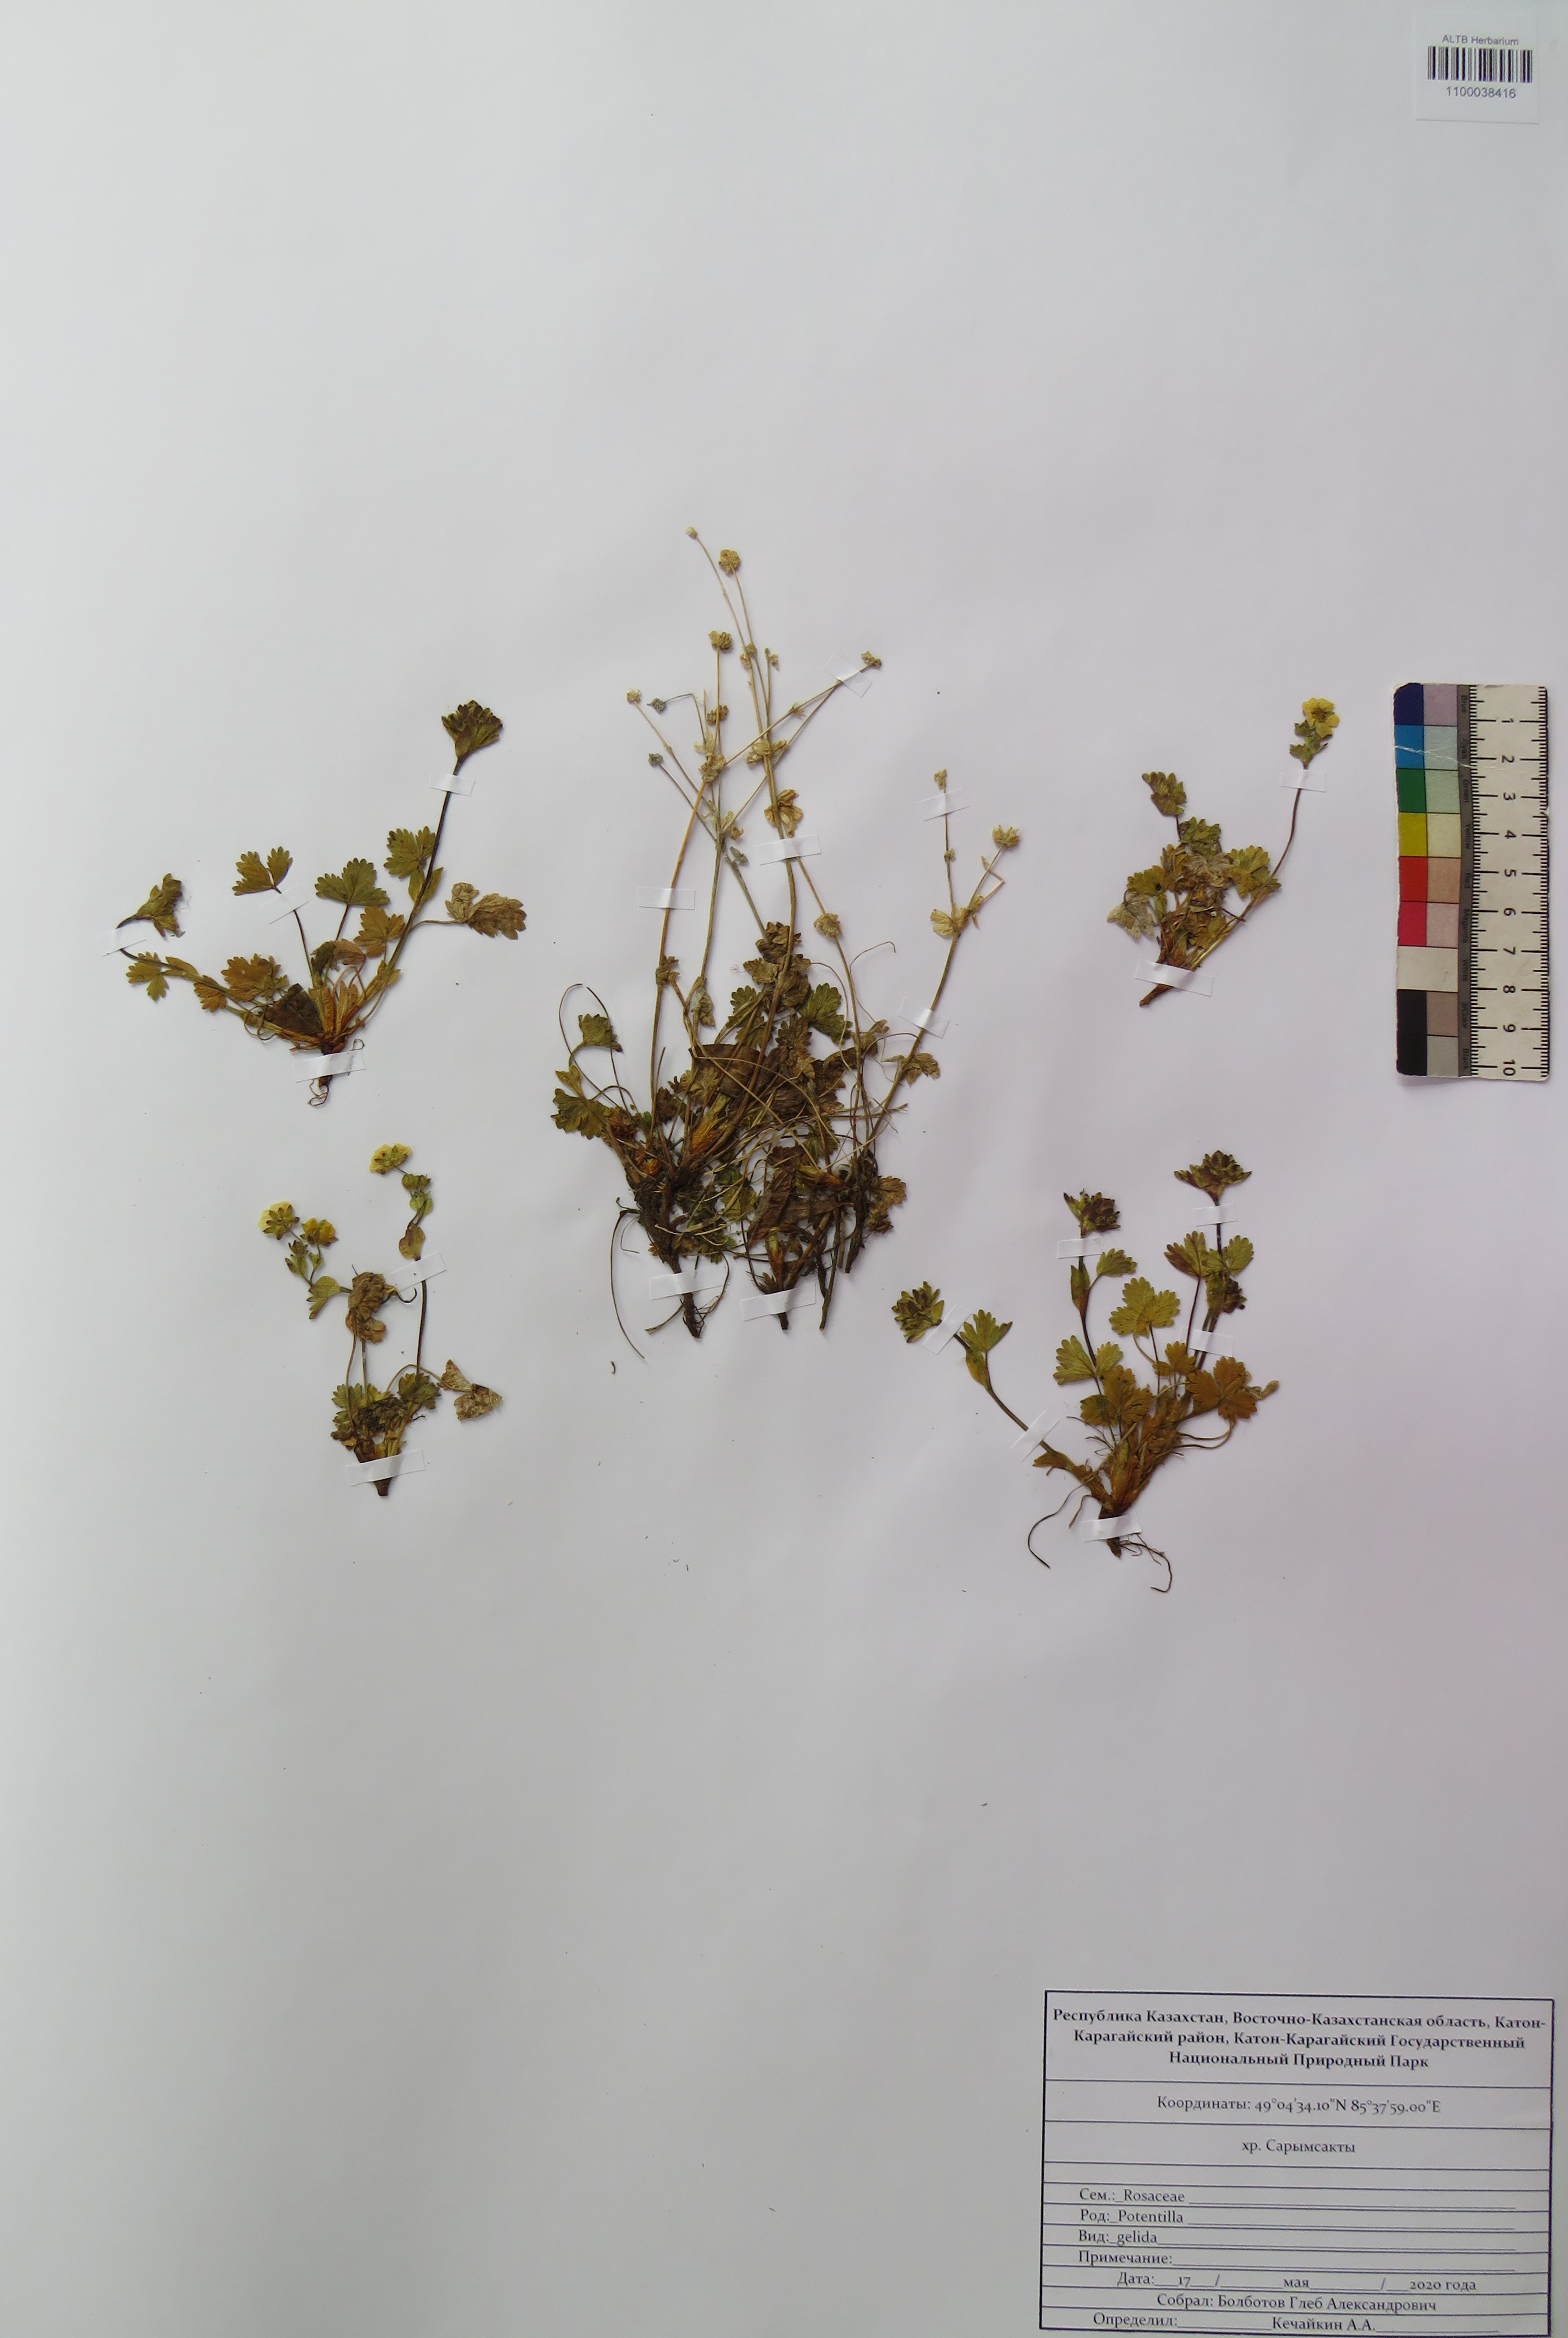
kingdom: Plantae
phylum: Tracheophyta
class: Magnoliopsida
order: Rosales
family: Rosaceae
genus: Potentilla
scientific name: Potentilla crantzii
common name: Alpine cinquefoil
